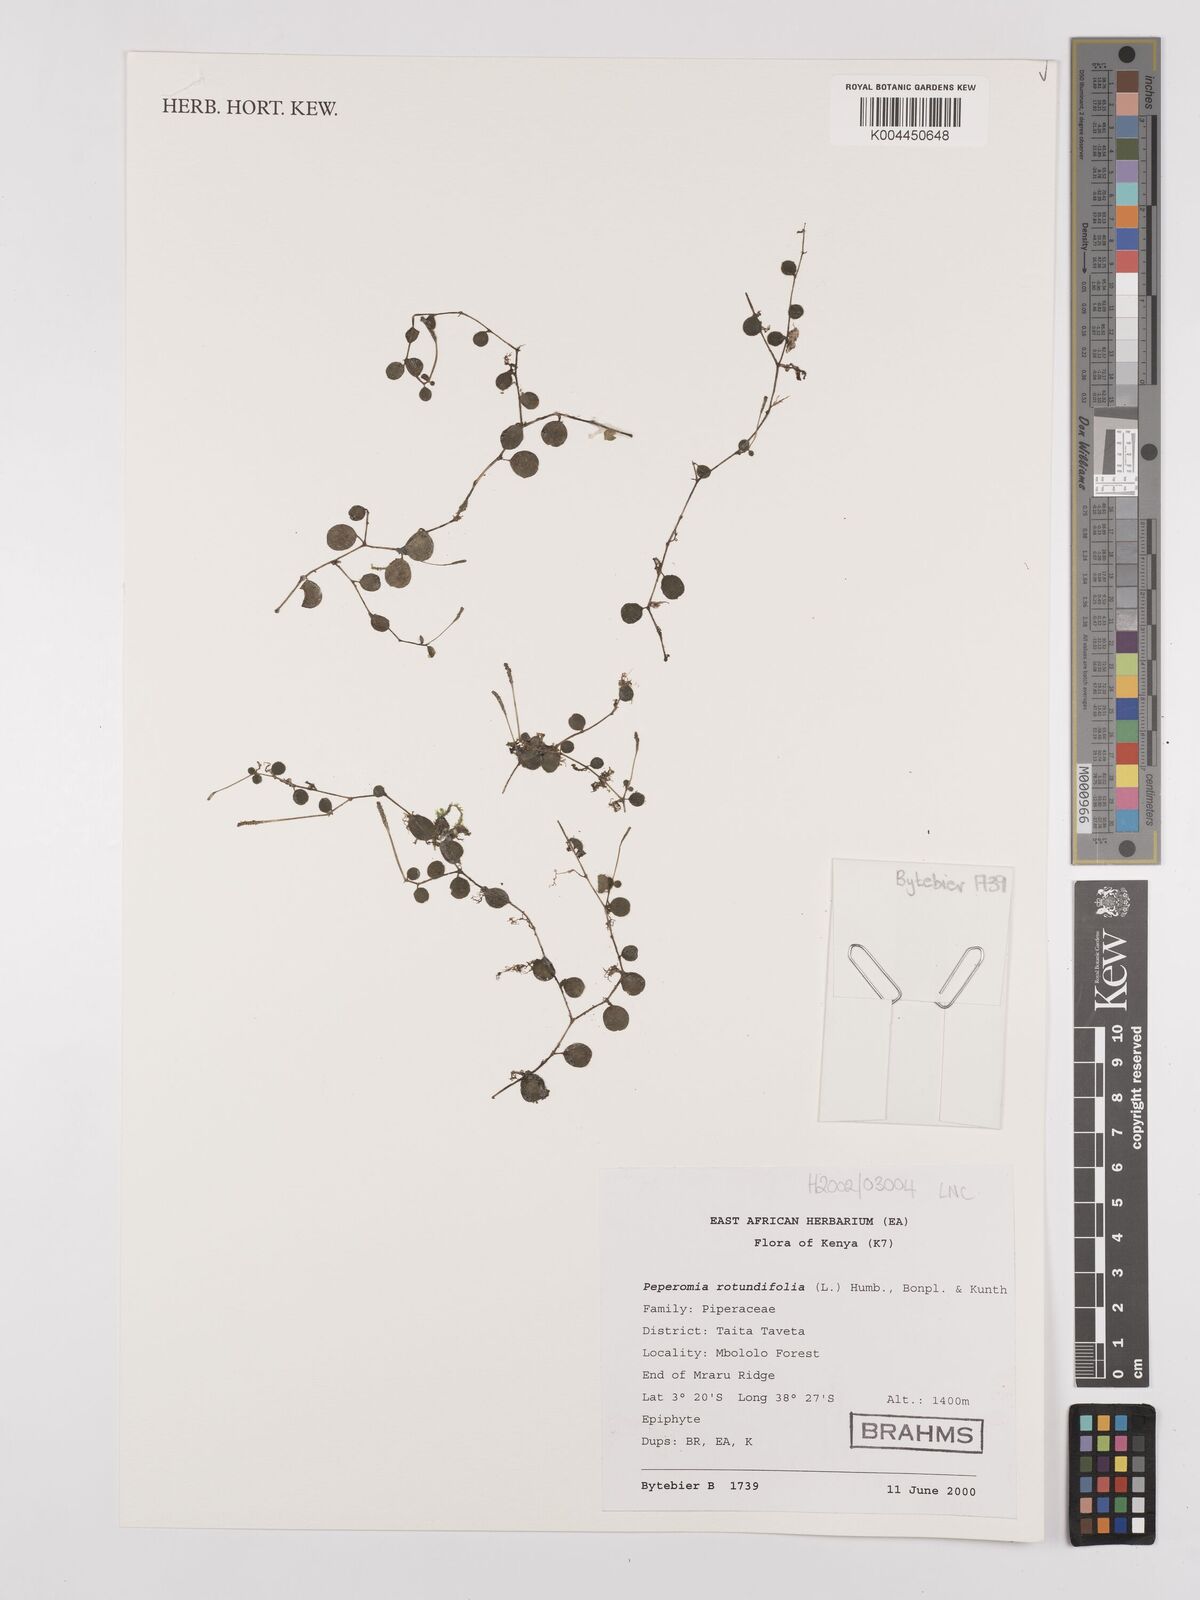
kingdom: Plantae
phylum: Tracheophyta
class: Magnoliopsida
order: Piperales
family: Piperaceae
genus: Peperomia
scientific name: Peperomia rotundifolia
